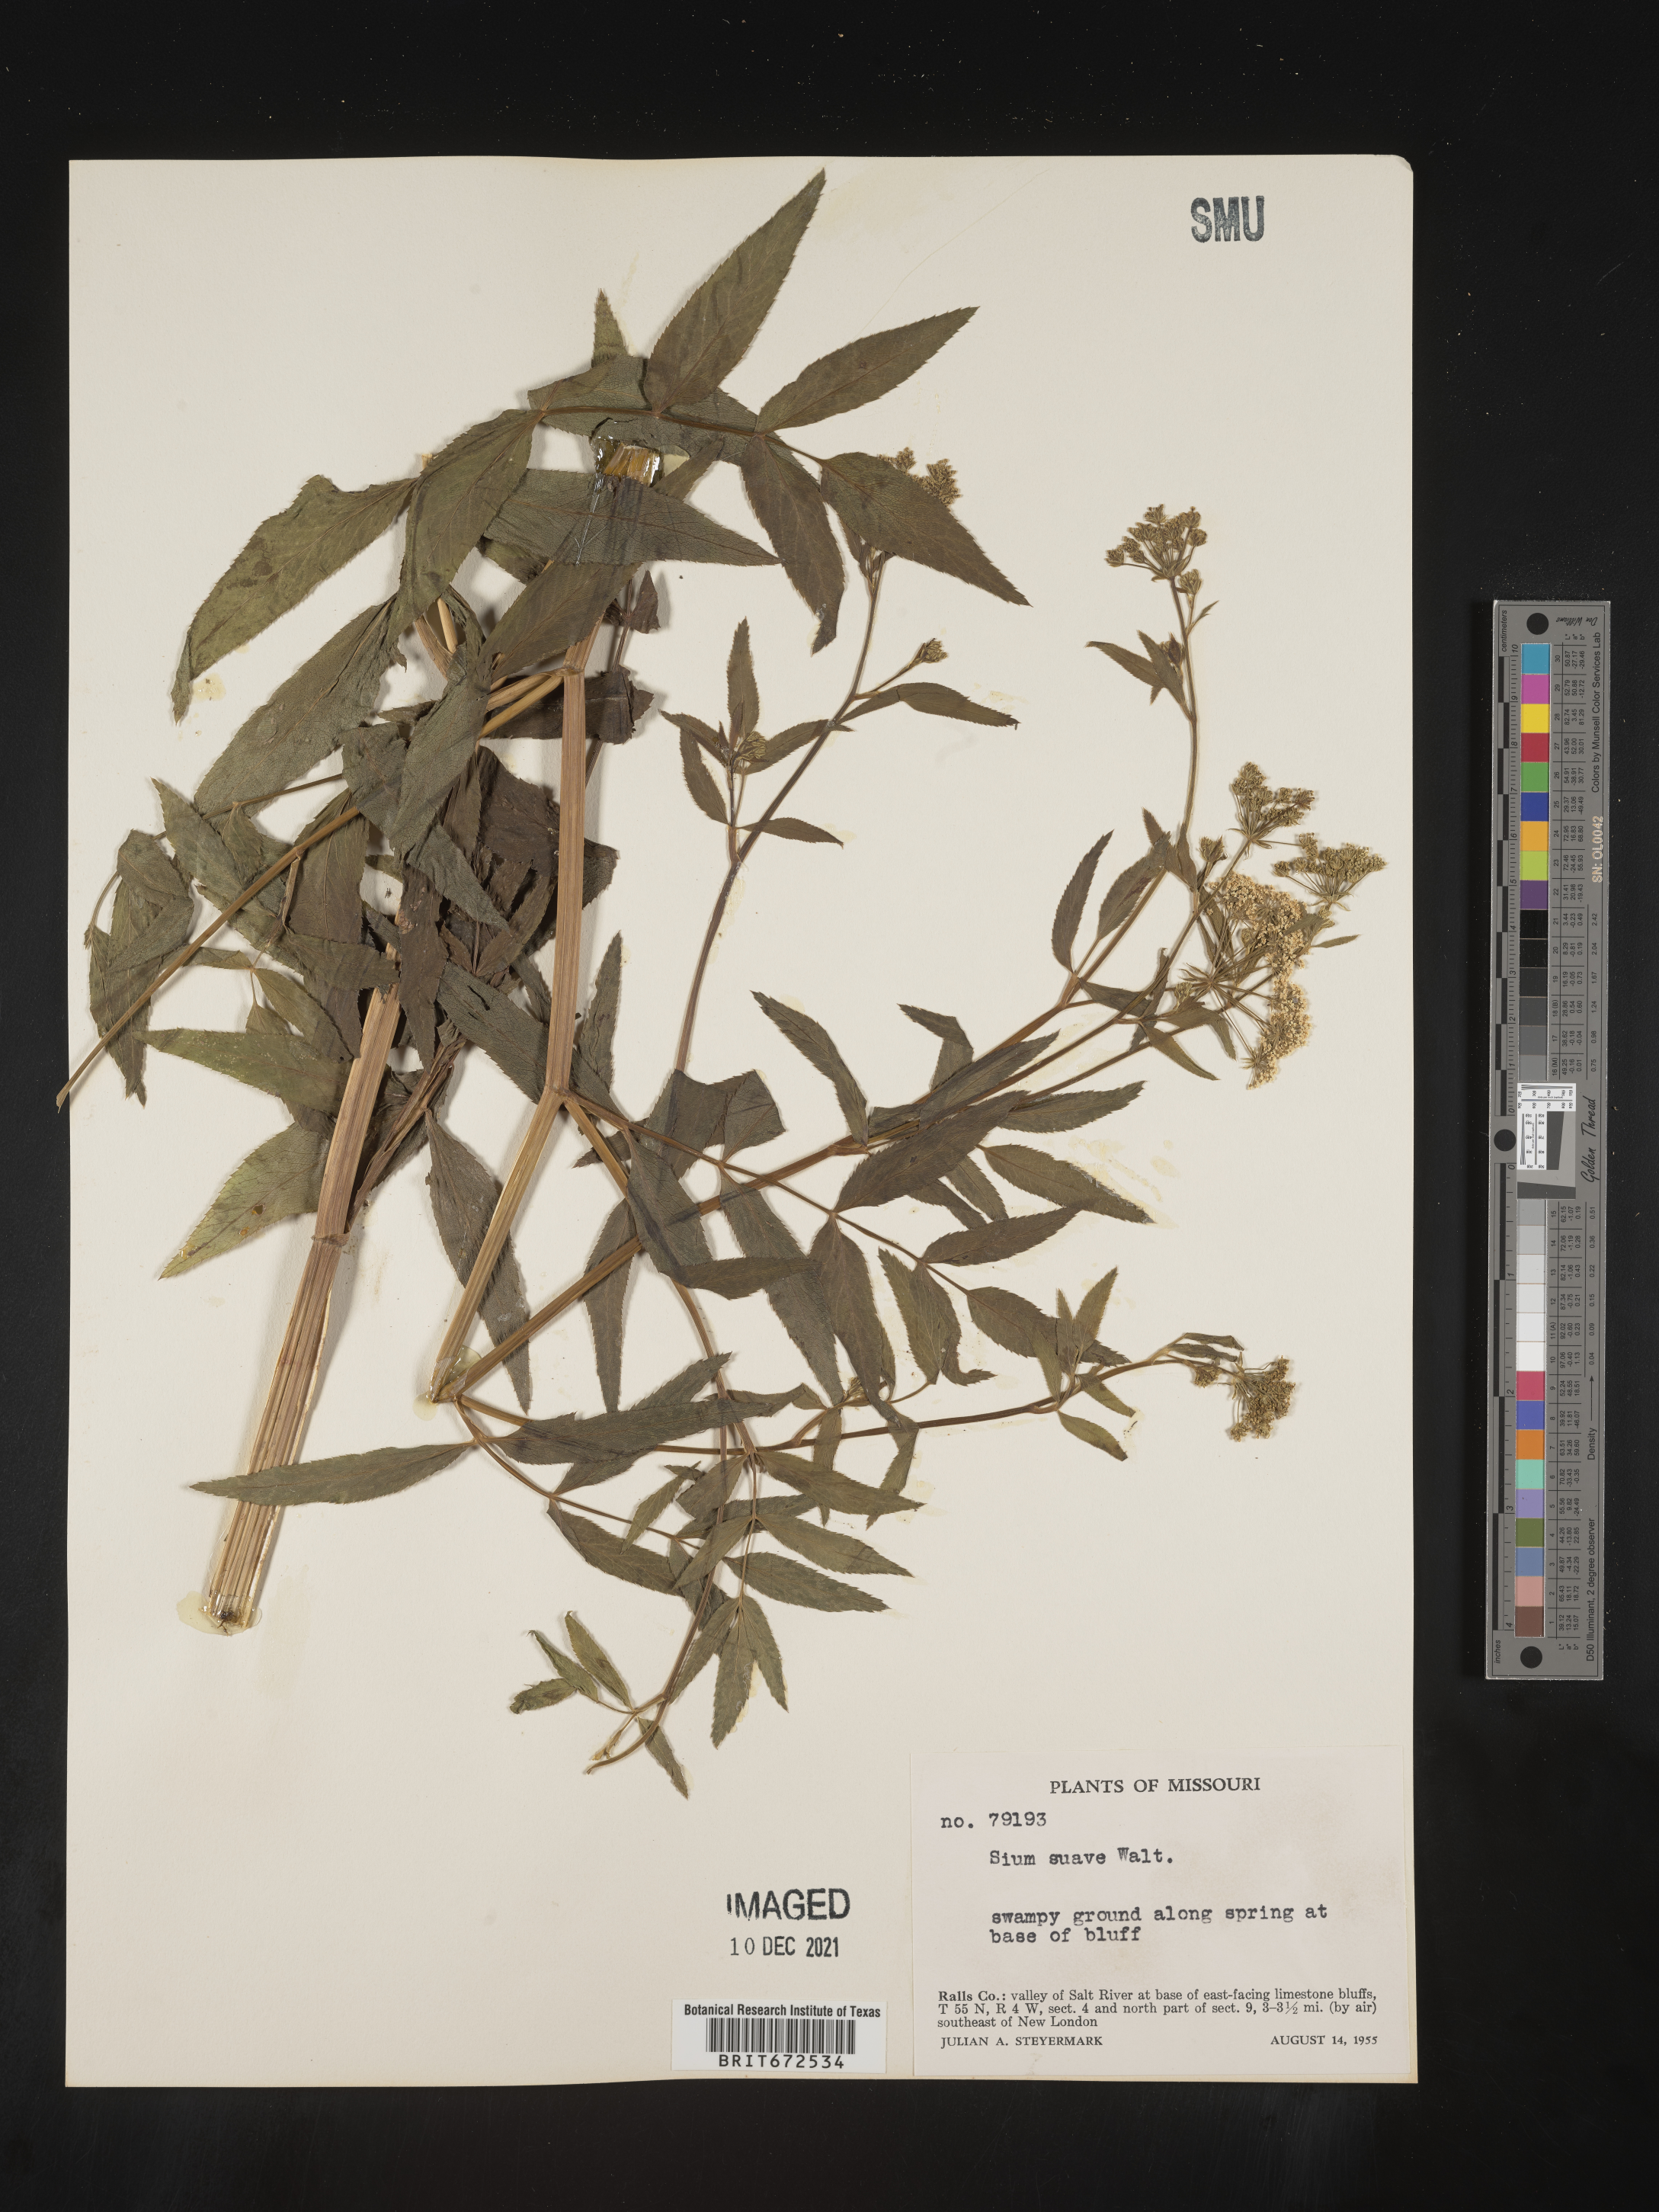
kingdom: Plantae
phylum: Tracheophyta
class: Magnoliopsida
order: Apiales
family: Apiaceae
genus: Sium
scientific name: Sium suave
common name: Hemlock water-parsnip
